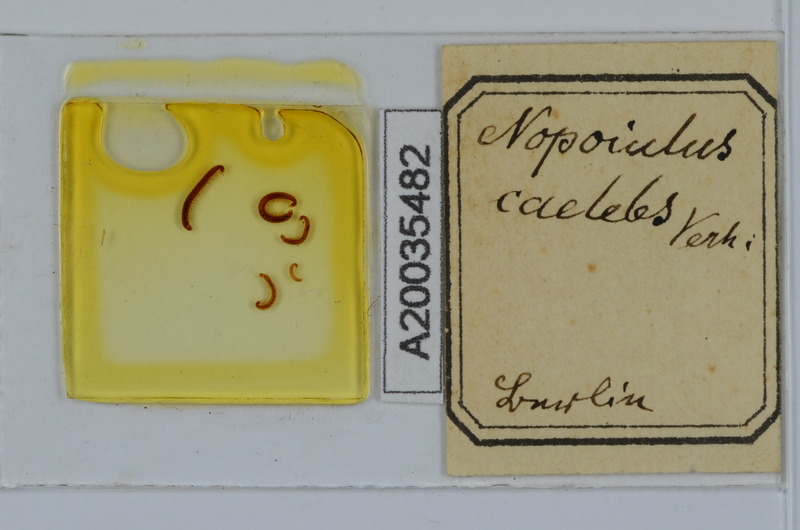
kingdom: Animalia
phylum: Arthropoda
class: Diplopoda
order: Julida
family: Blaniulidae
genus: Proteroiulus
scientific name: Proteroiulus fuscus
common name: Millipede
